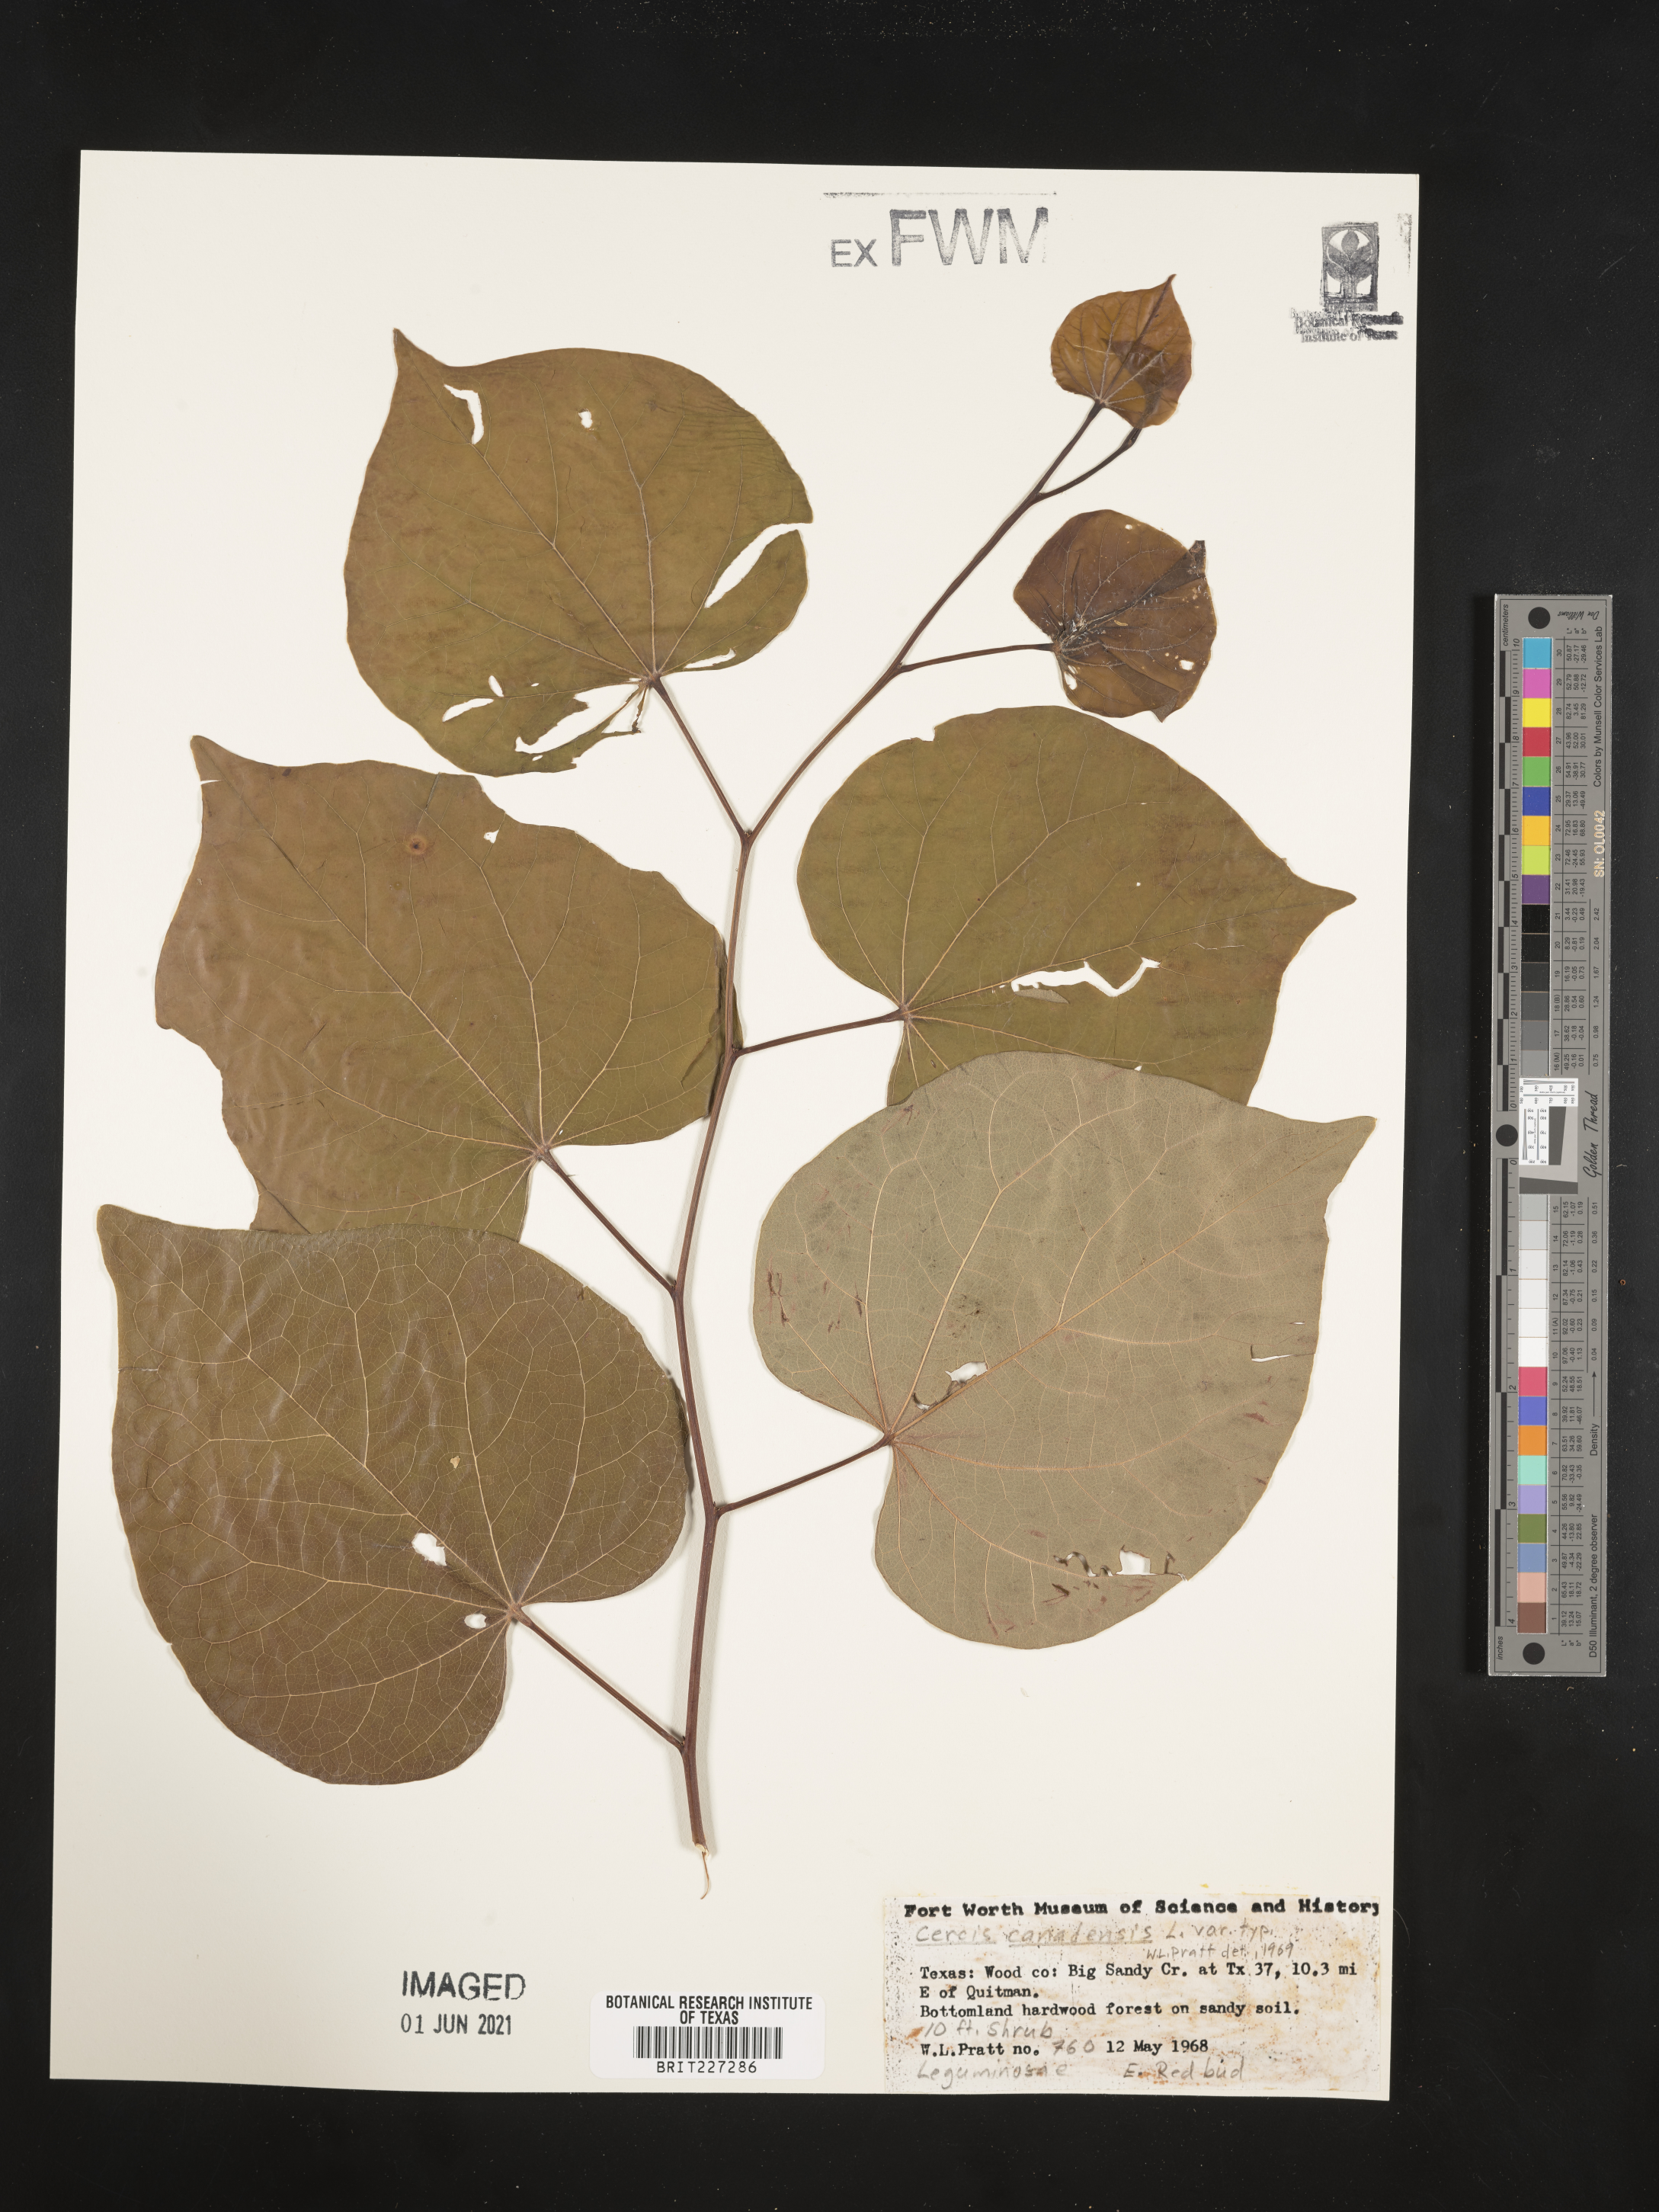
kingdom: Plantae
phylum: Tracheophyta
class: Magnoliopsida
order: Fabales
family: Fabaceae
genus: Cercis
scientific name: Cercis canadensis
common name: Eastern redbud
